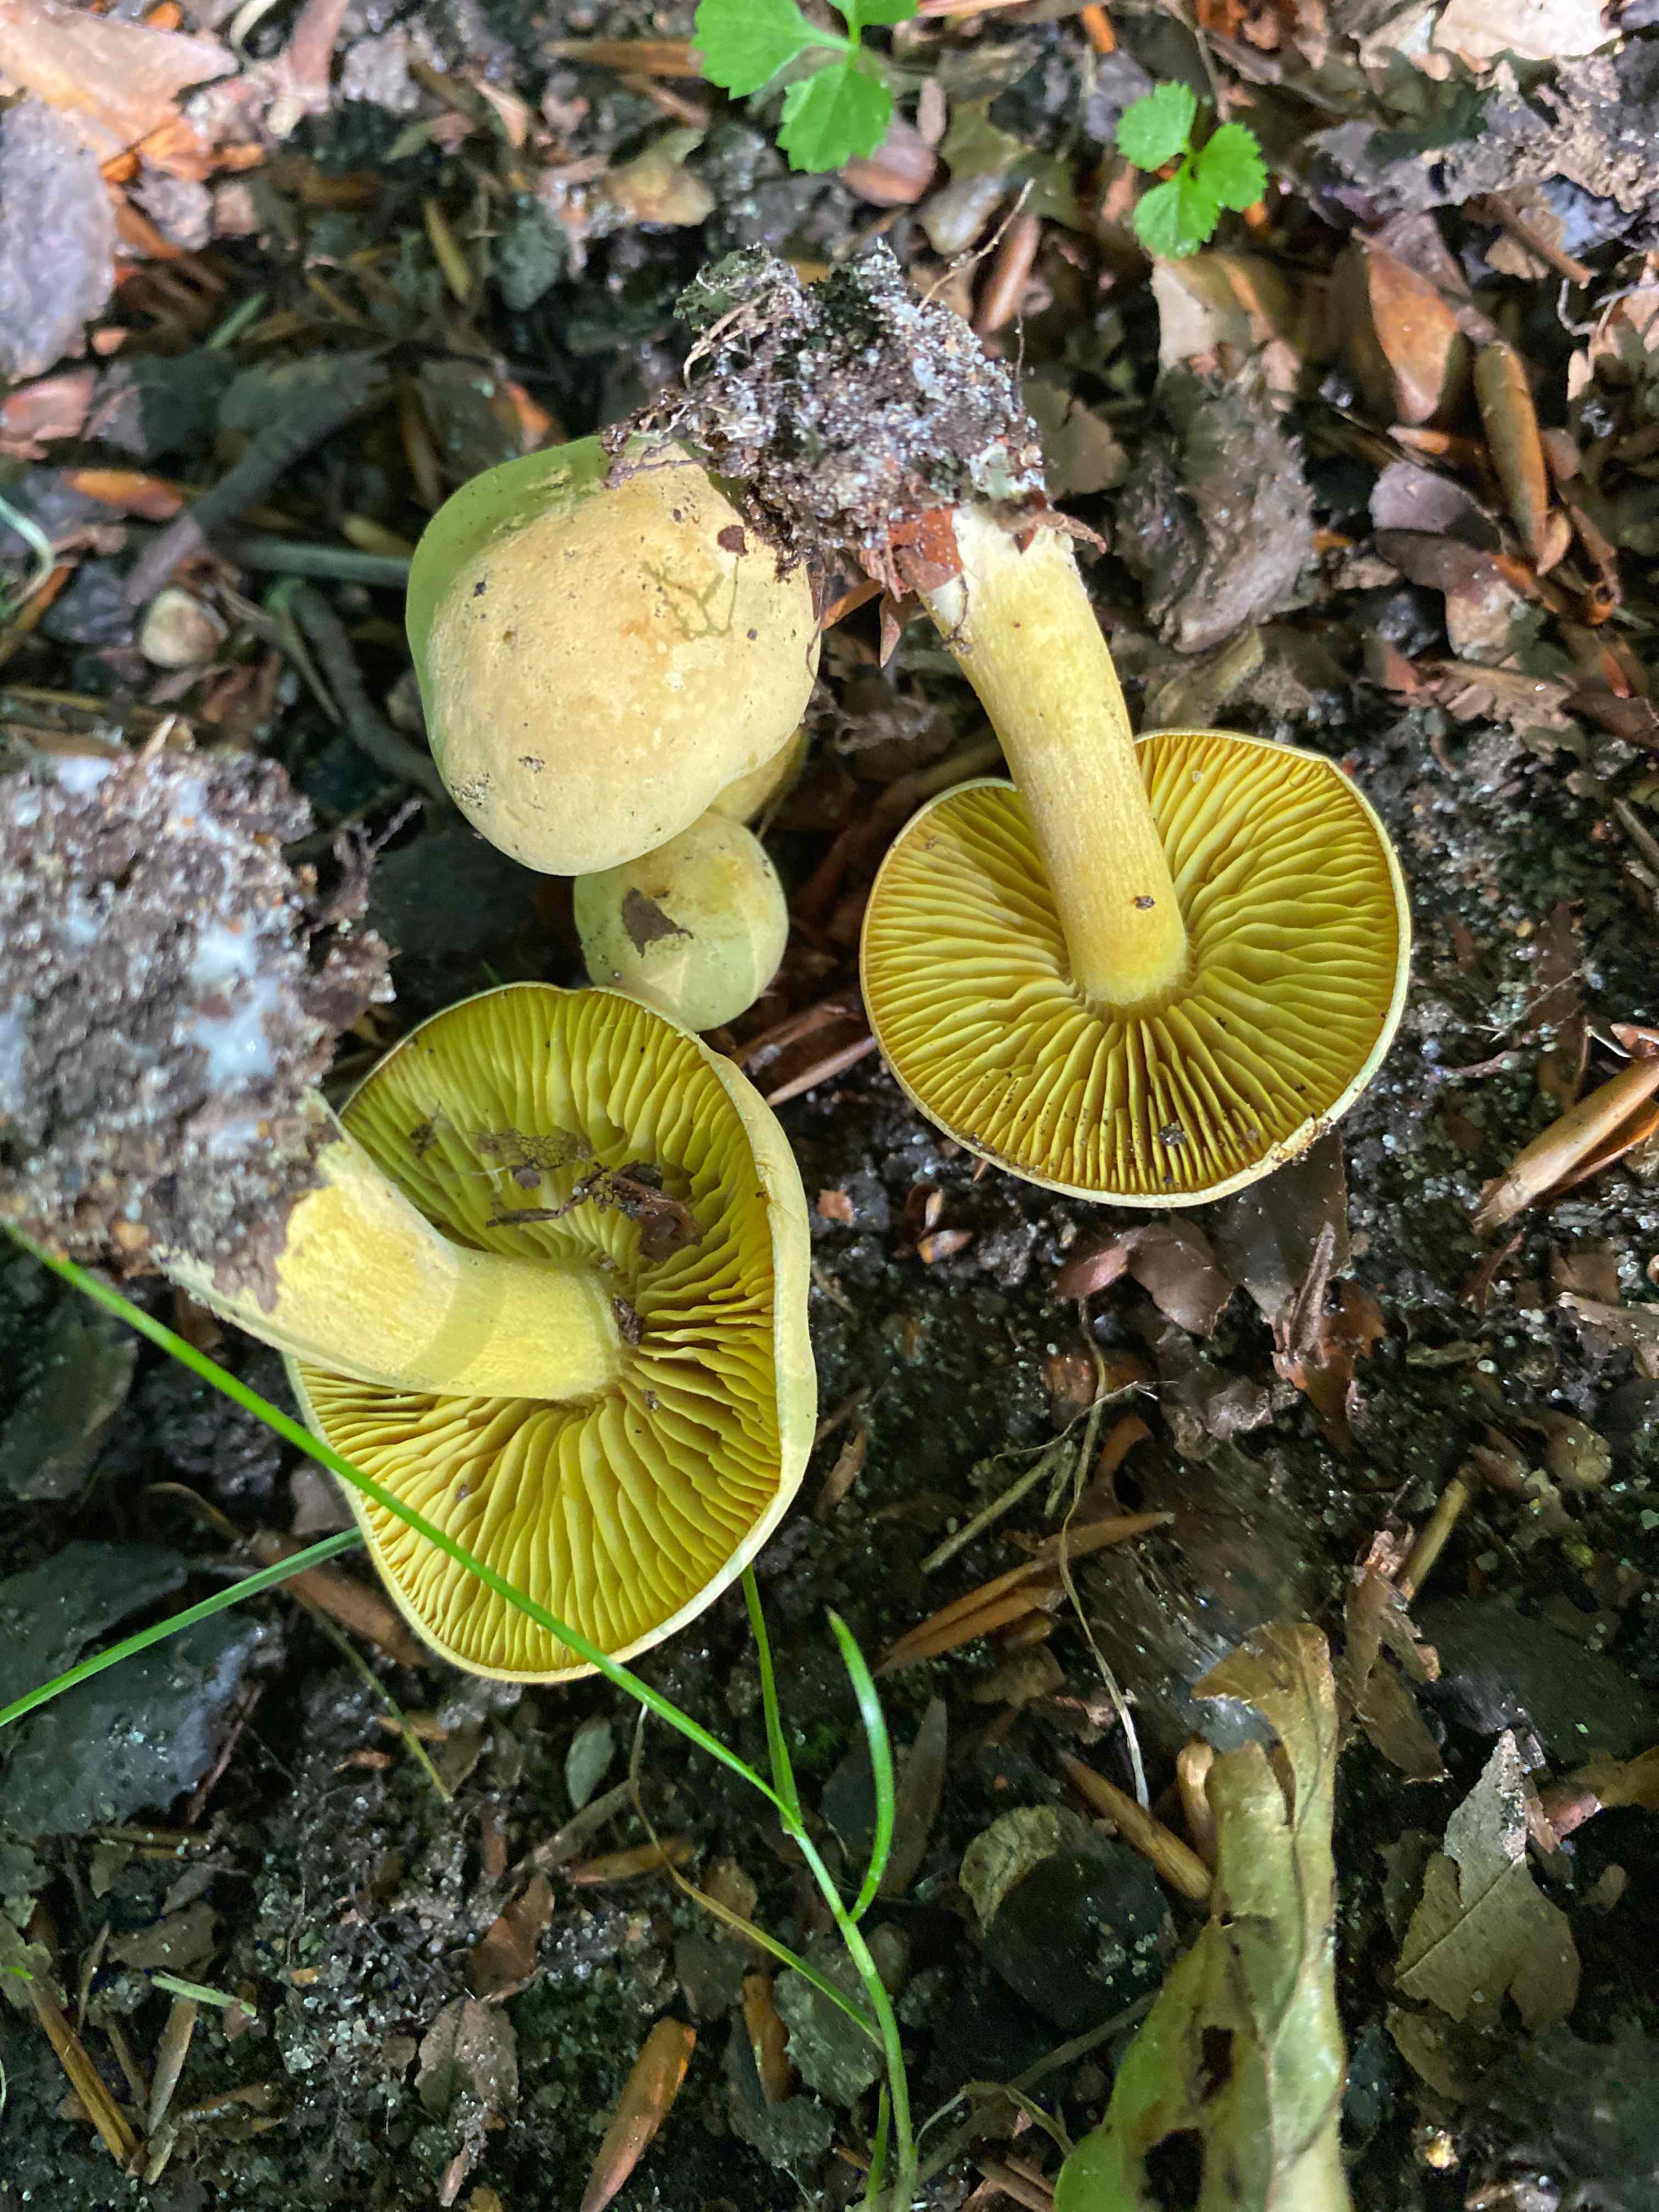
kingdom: Fungi
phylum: Basidiomycota
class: Agaricomycetes
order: Agaricales
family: Tricholomataceae
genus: Tricholoma
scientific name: Tricholoma sulphureum
